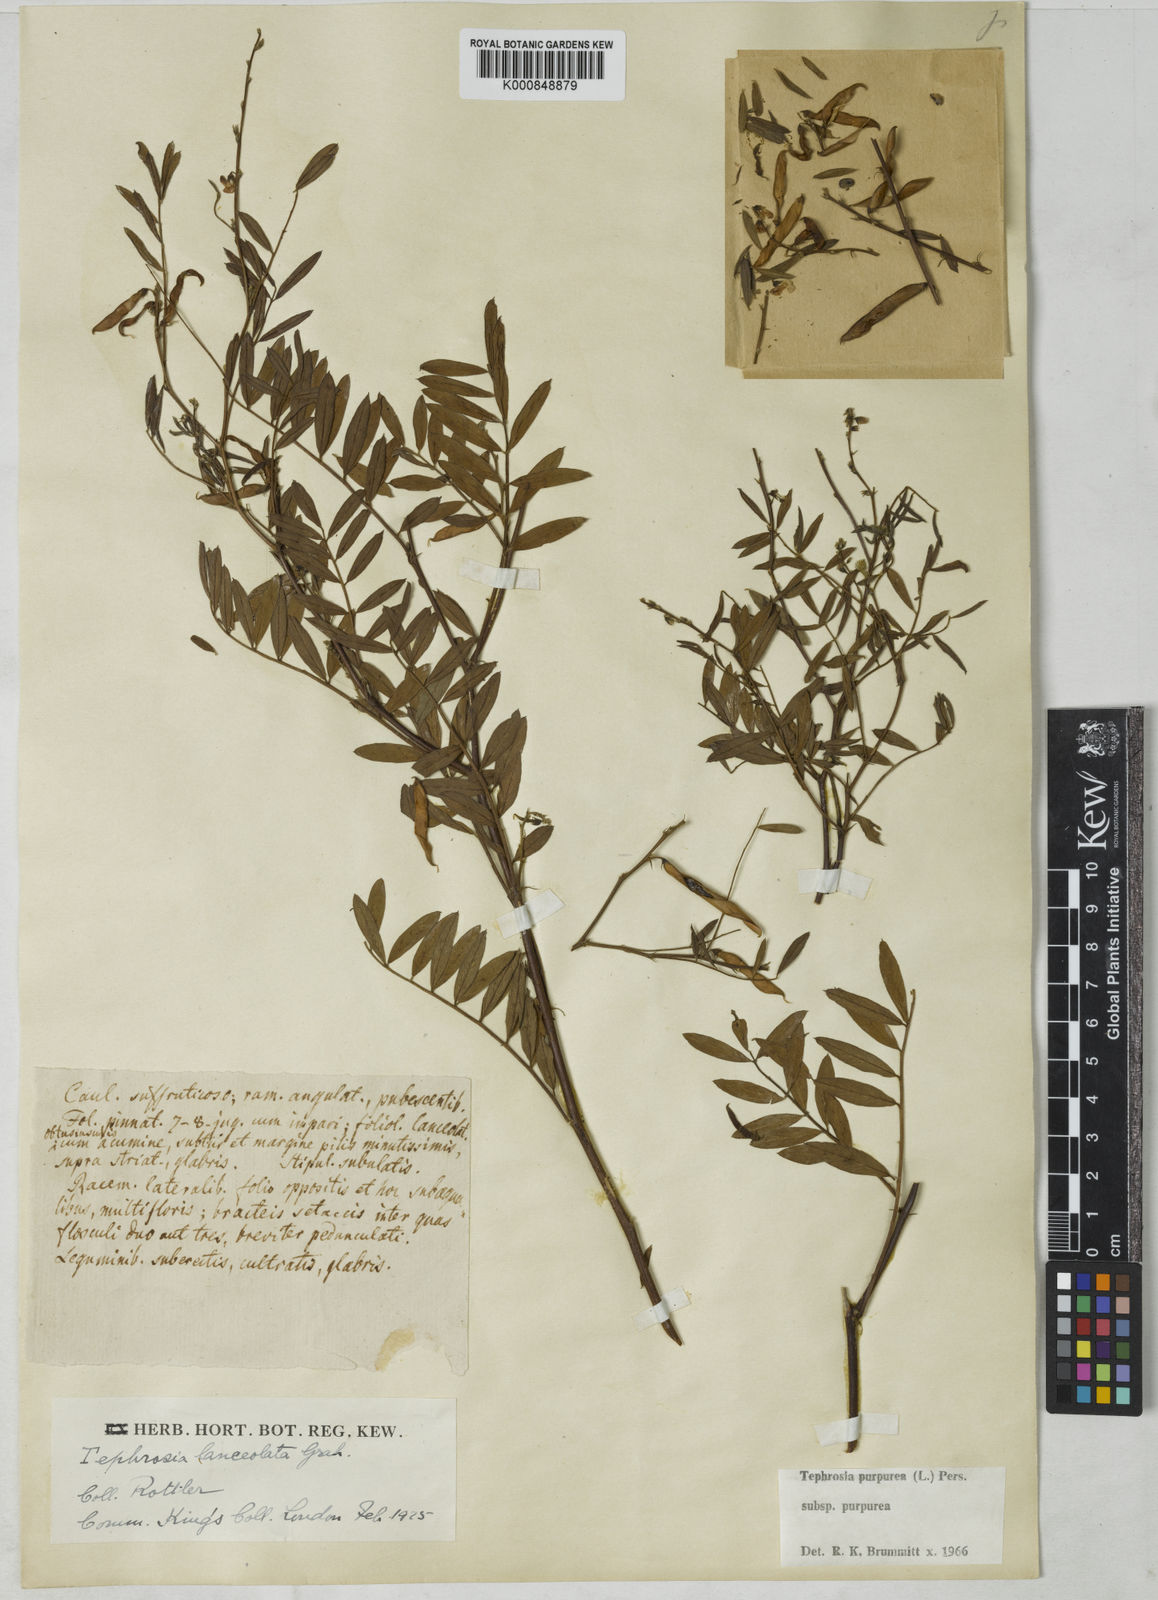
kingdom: Plantae
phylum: Tracheophyta
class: Magnoliopsida
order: Fabales
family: Fabaceae
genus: Tephrosia
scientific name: Tephrosia purpurea
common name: Fishpoison
